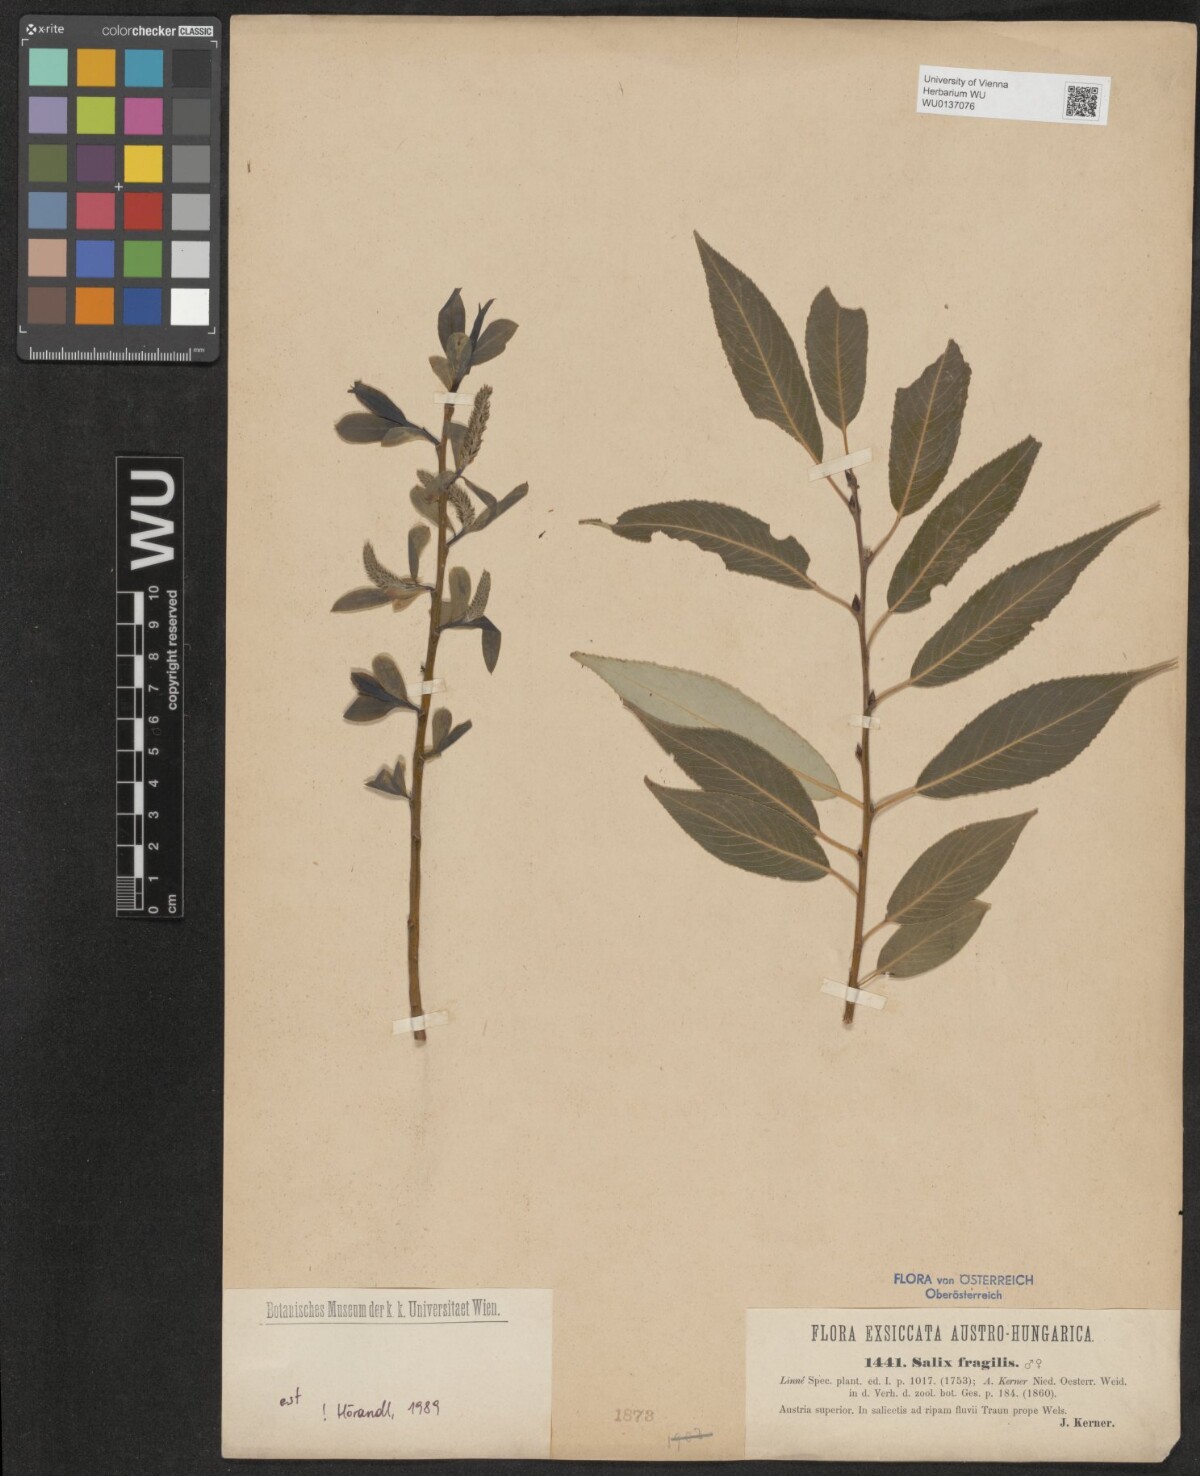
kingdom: Plantae
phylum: Tracheophyta
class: Magnoliopsida
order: Malpighiales
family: Salicaceae
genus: Salix
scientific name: Salix fragilis
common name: Crack willow
